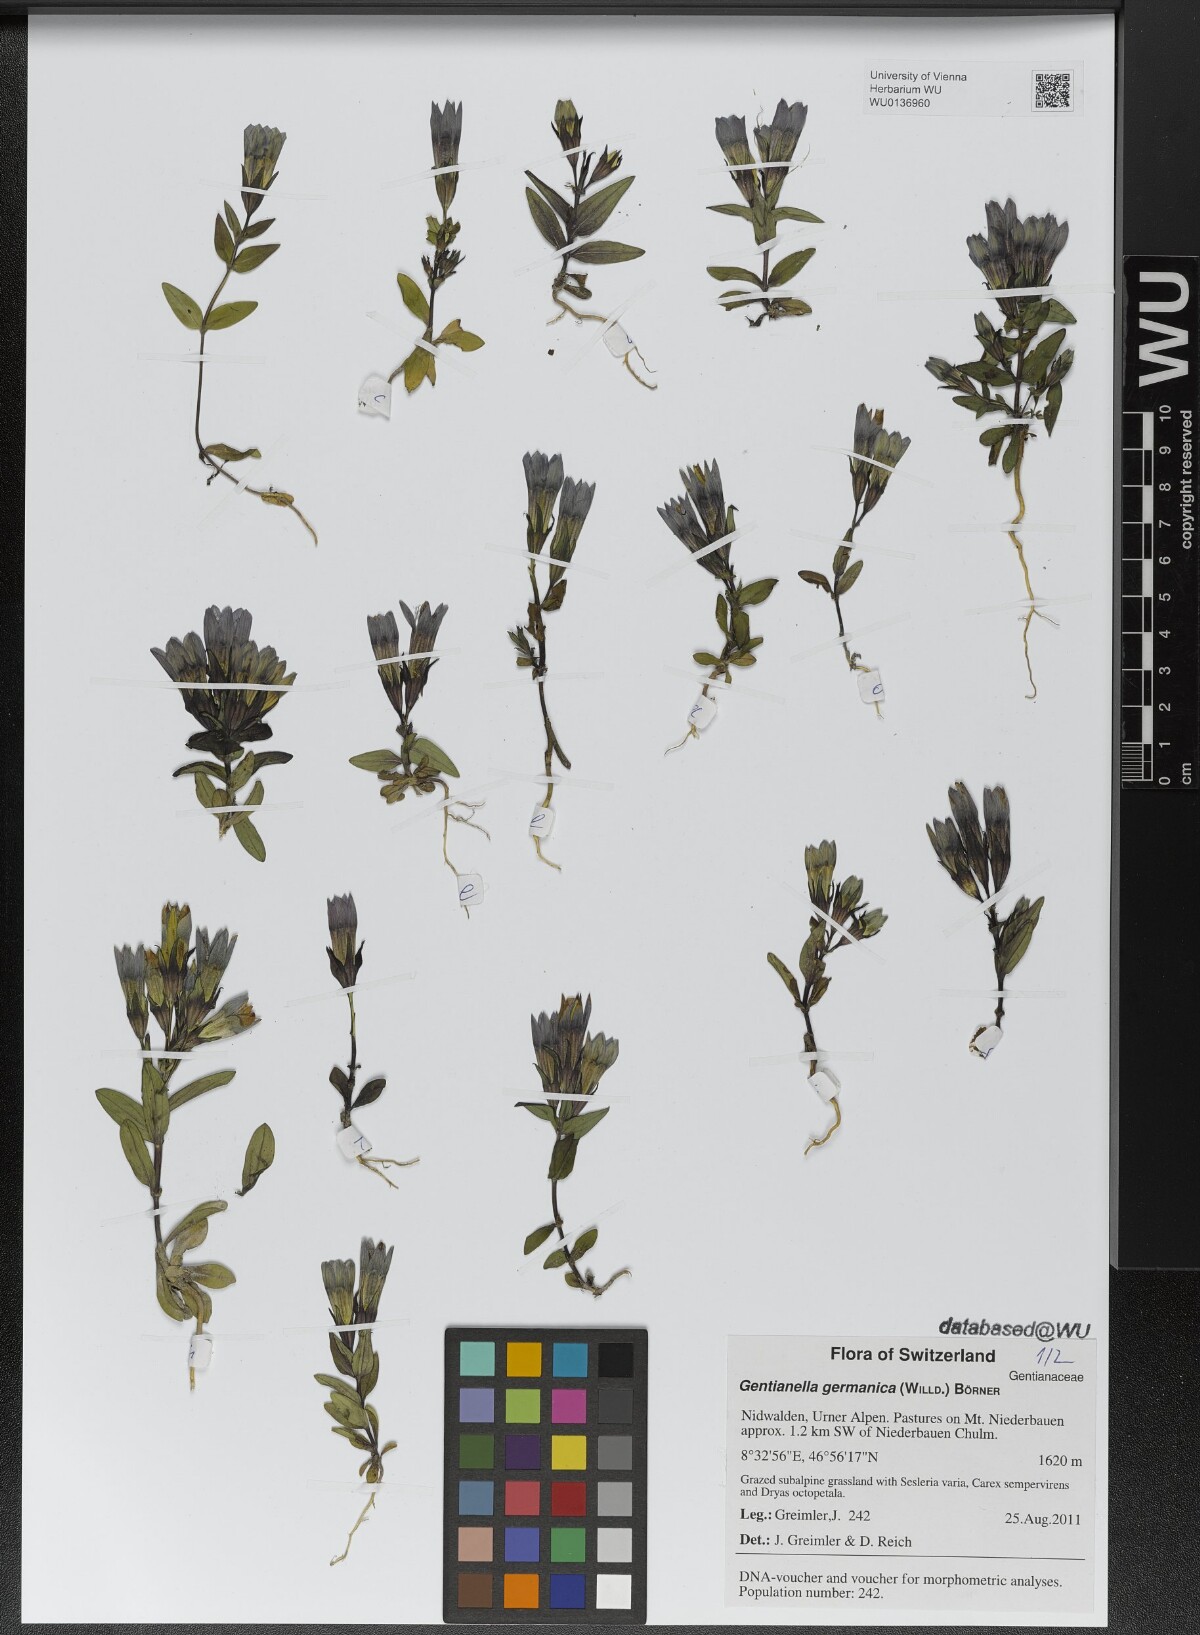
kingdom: Plantae
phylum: Tracheophyta
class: Magnoliopsida
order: Gentianales
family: Gentianaceae
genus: Gentianella
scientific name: Gentianella germanica
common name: Chiltern-gentian
